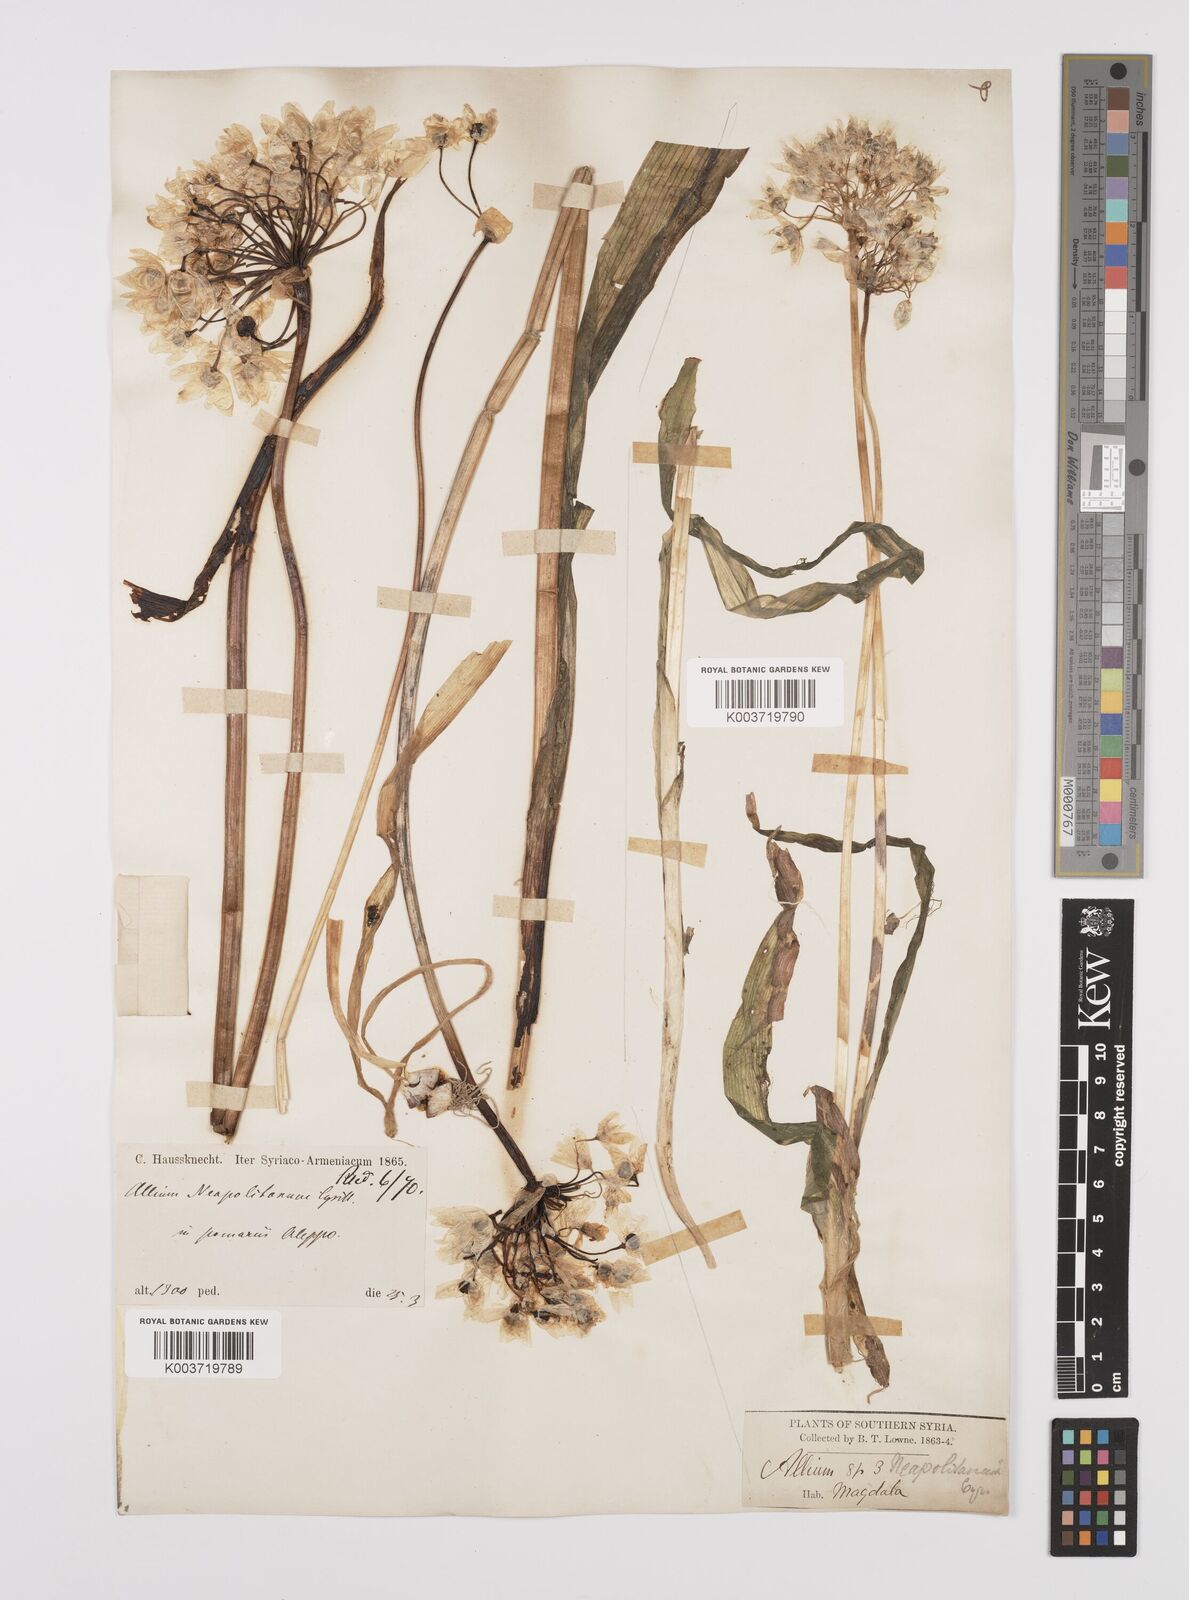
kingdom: Plantae
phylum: Tracheophyta
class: Liliopsida
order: Asparagales
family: Amaryllidaceae
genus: Allium
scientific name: Allium neapolitanum
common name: Neapolitan garlic
